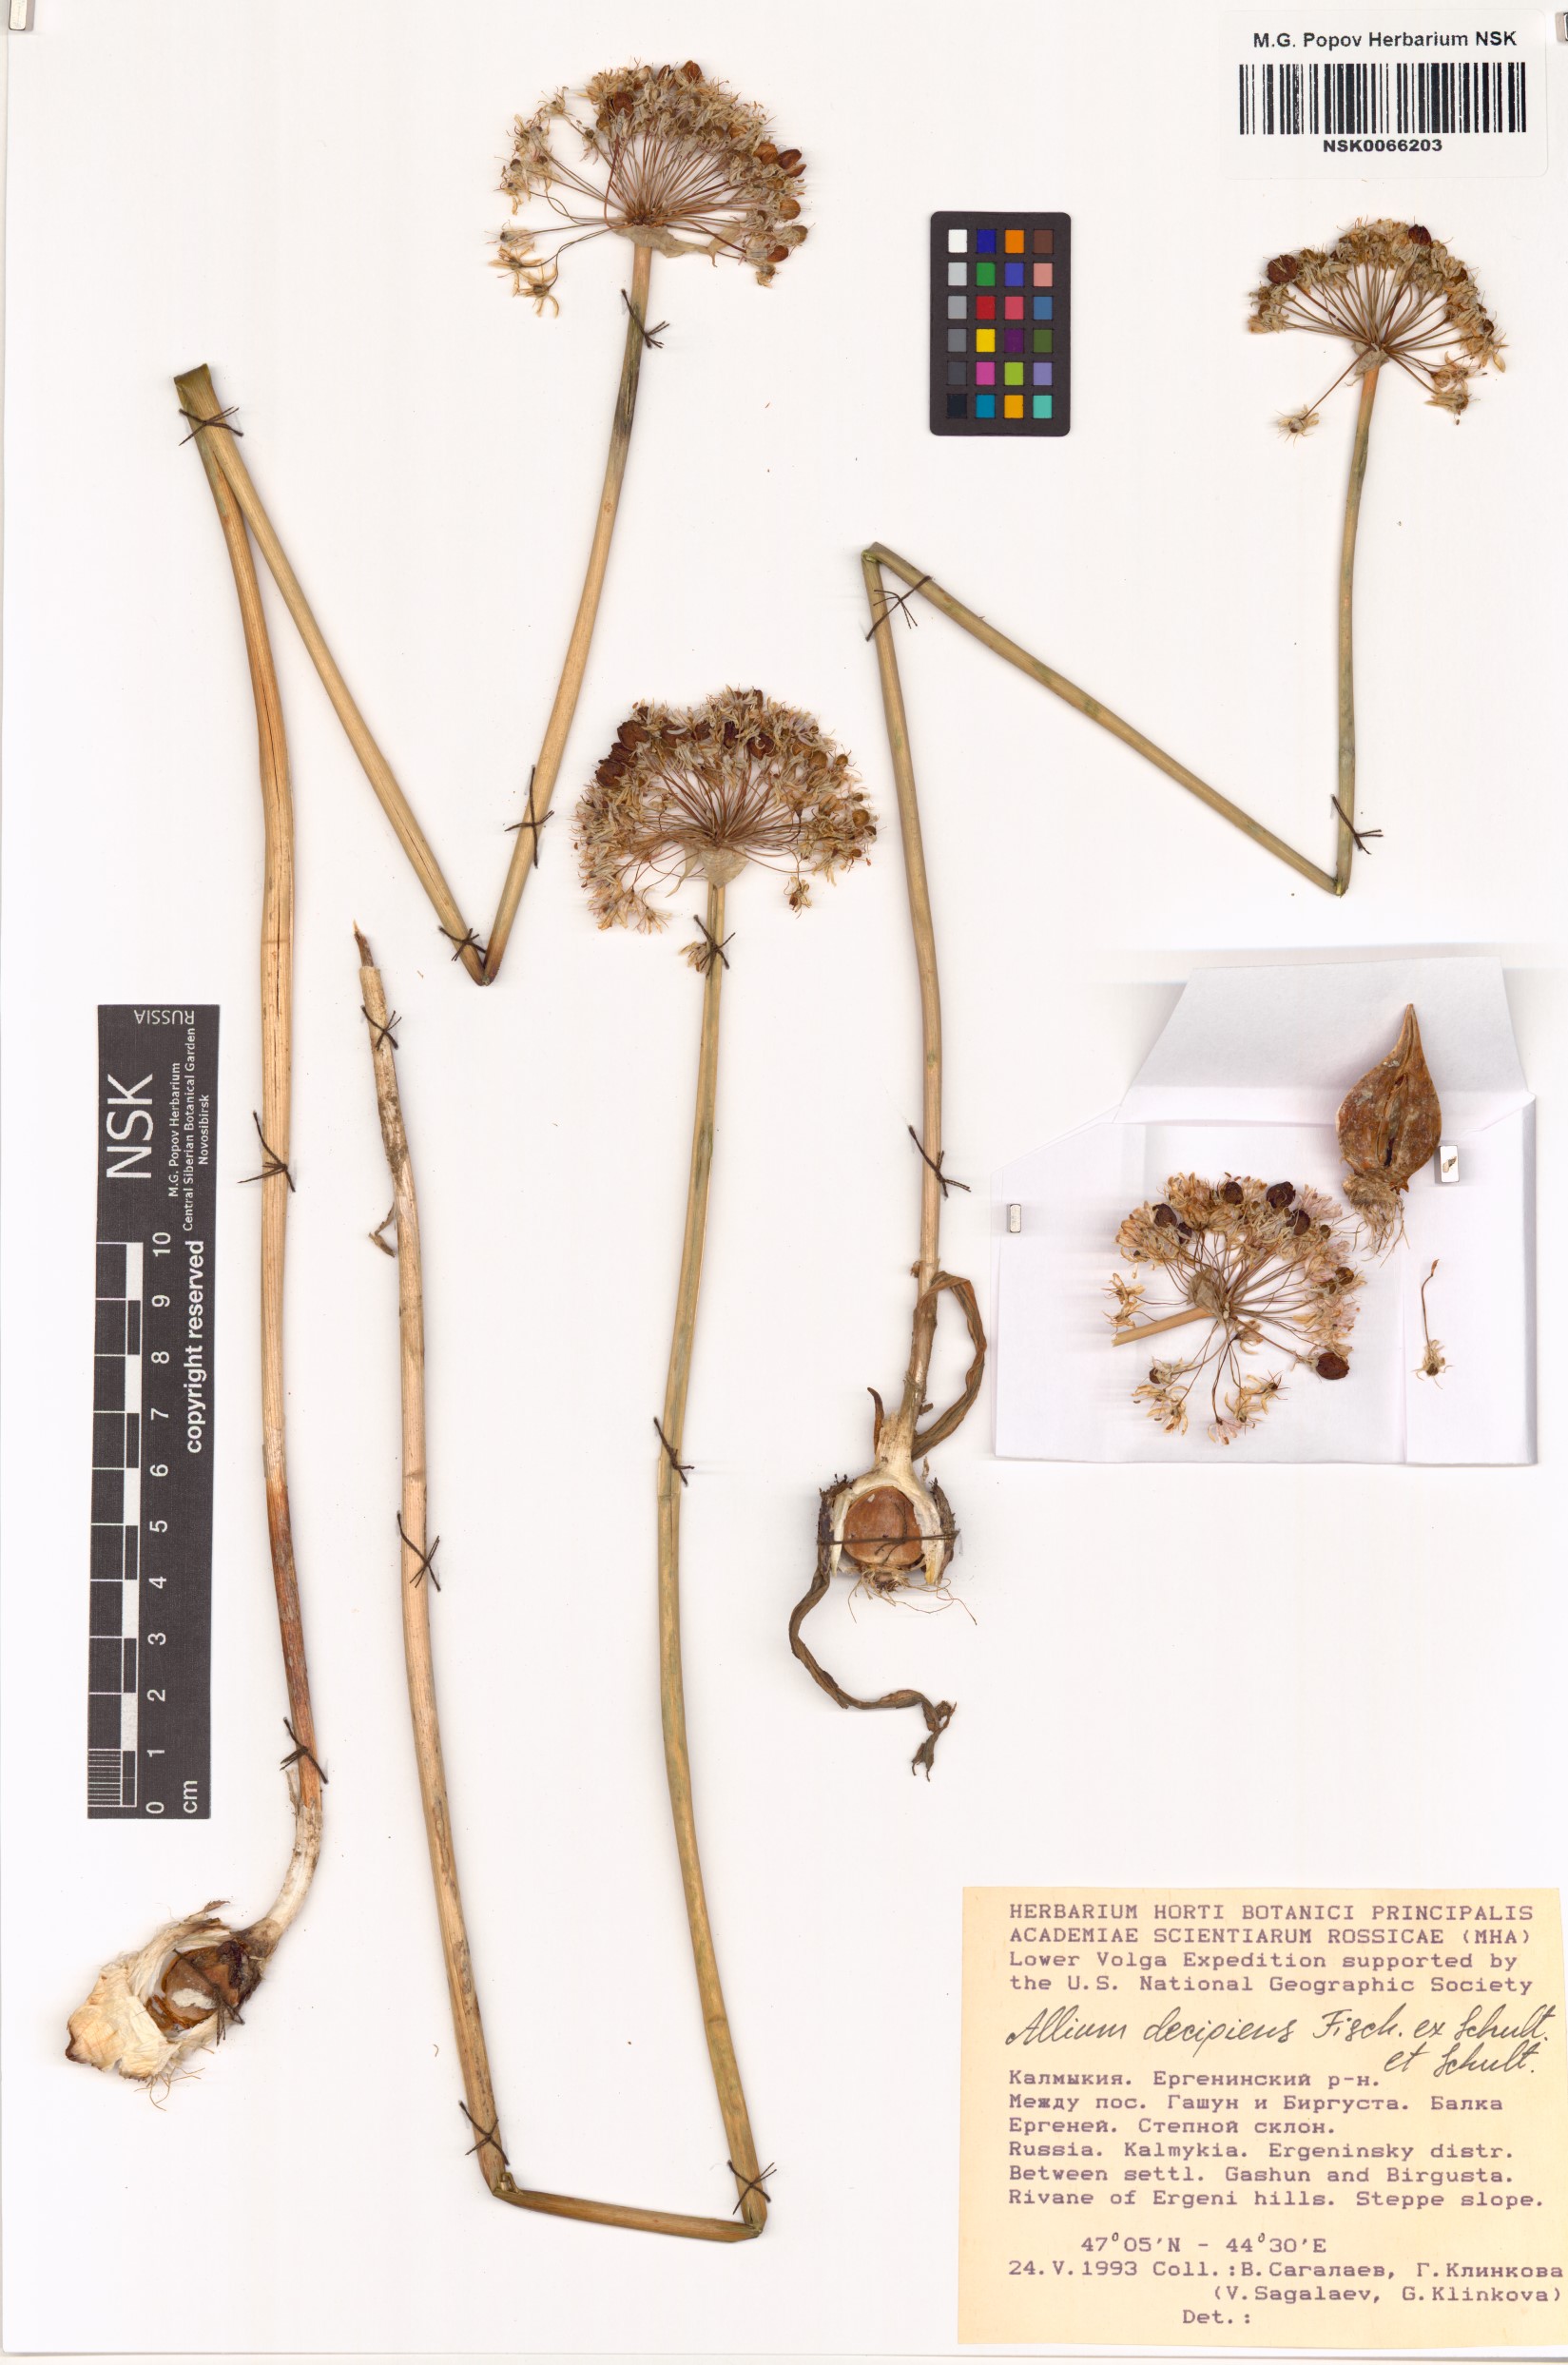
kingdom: Plantae
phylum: Tracheophyta
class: Liliopsida
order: Asparagales
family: Amaryllidaceae
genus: Allium
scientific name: Allium decipiens
